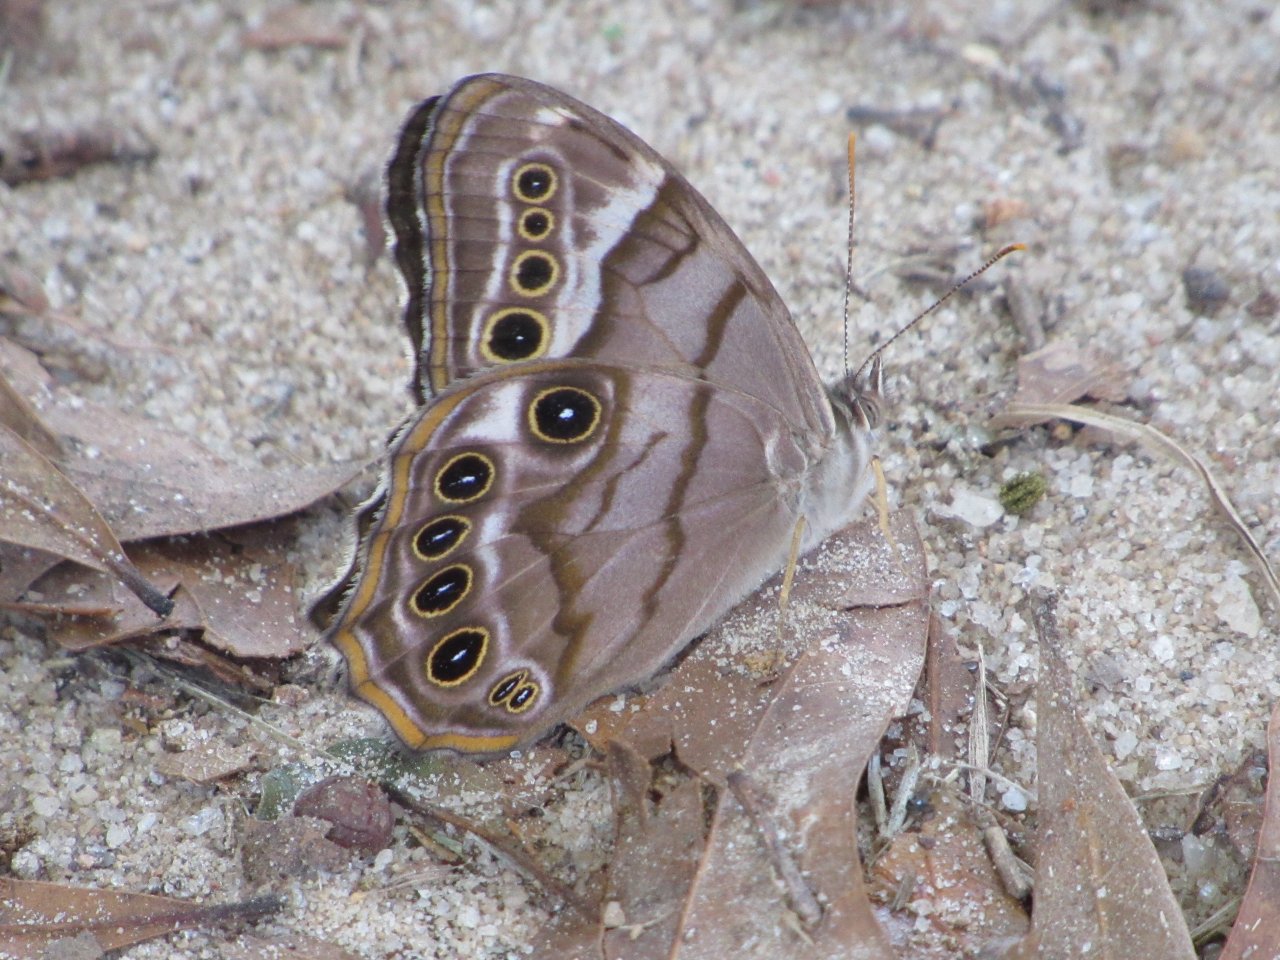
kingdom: Animalia
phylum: Arthropoda
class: Insecta
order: Lepidoptera
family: Nymphalidae
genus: Enodia
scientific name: Enodia portlandia
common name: Southern Pearly Eye
